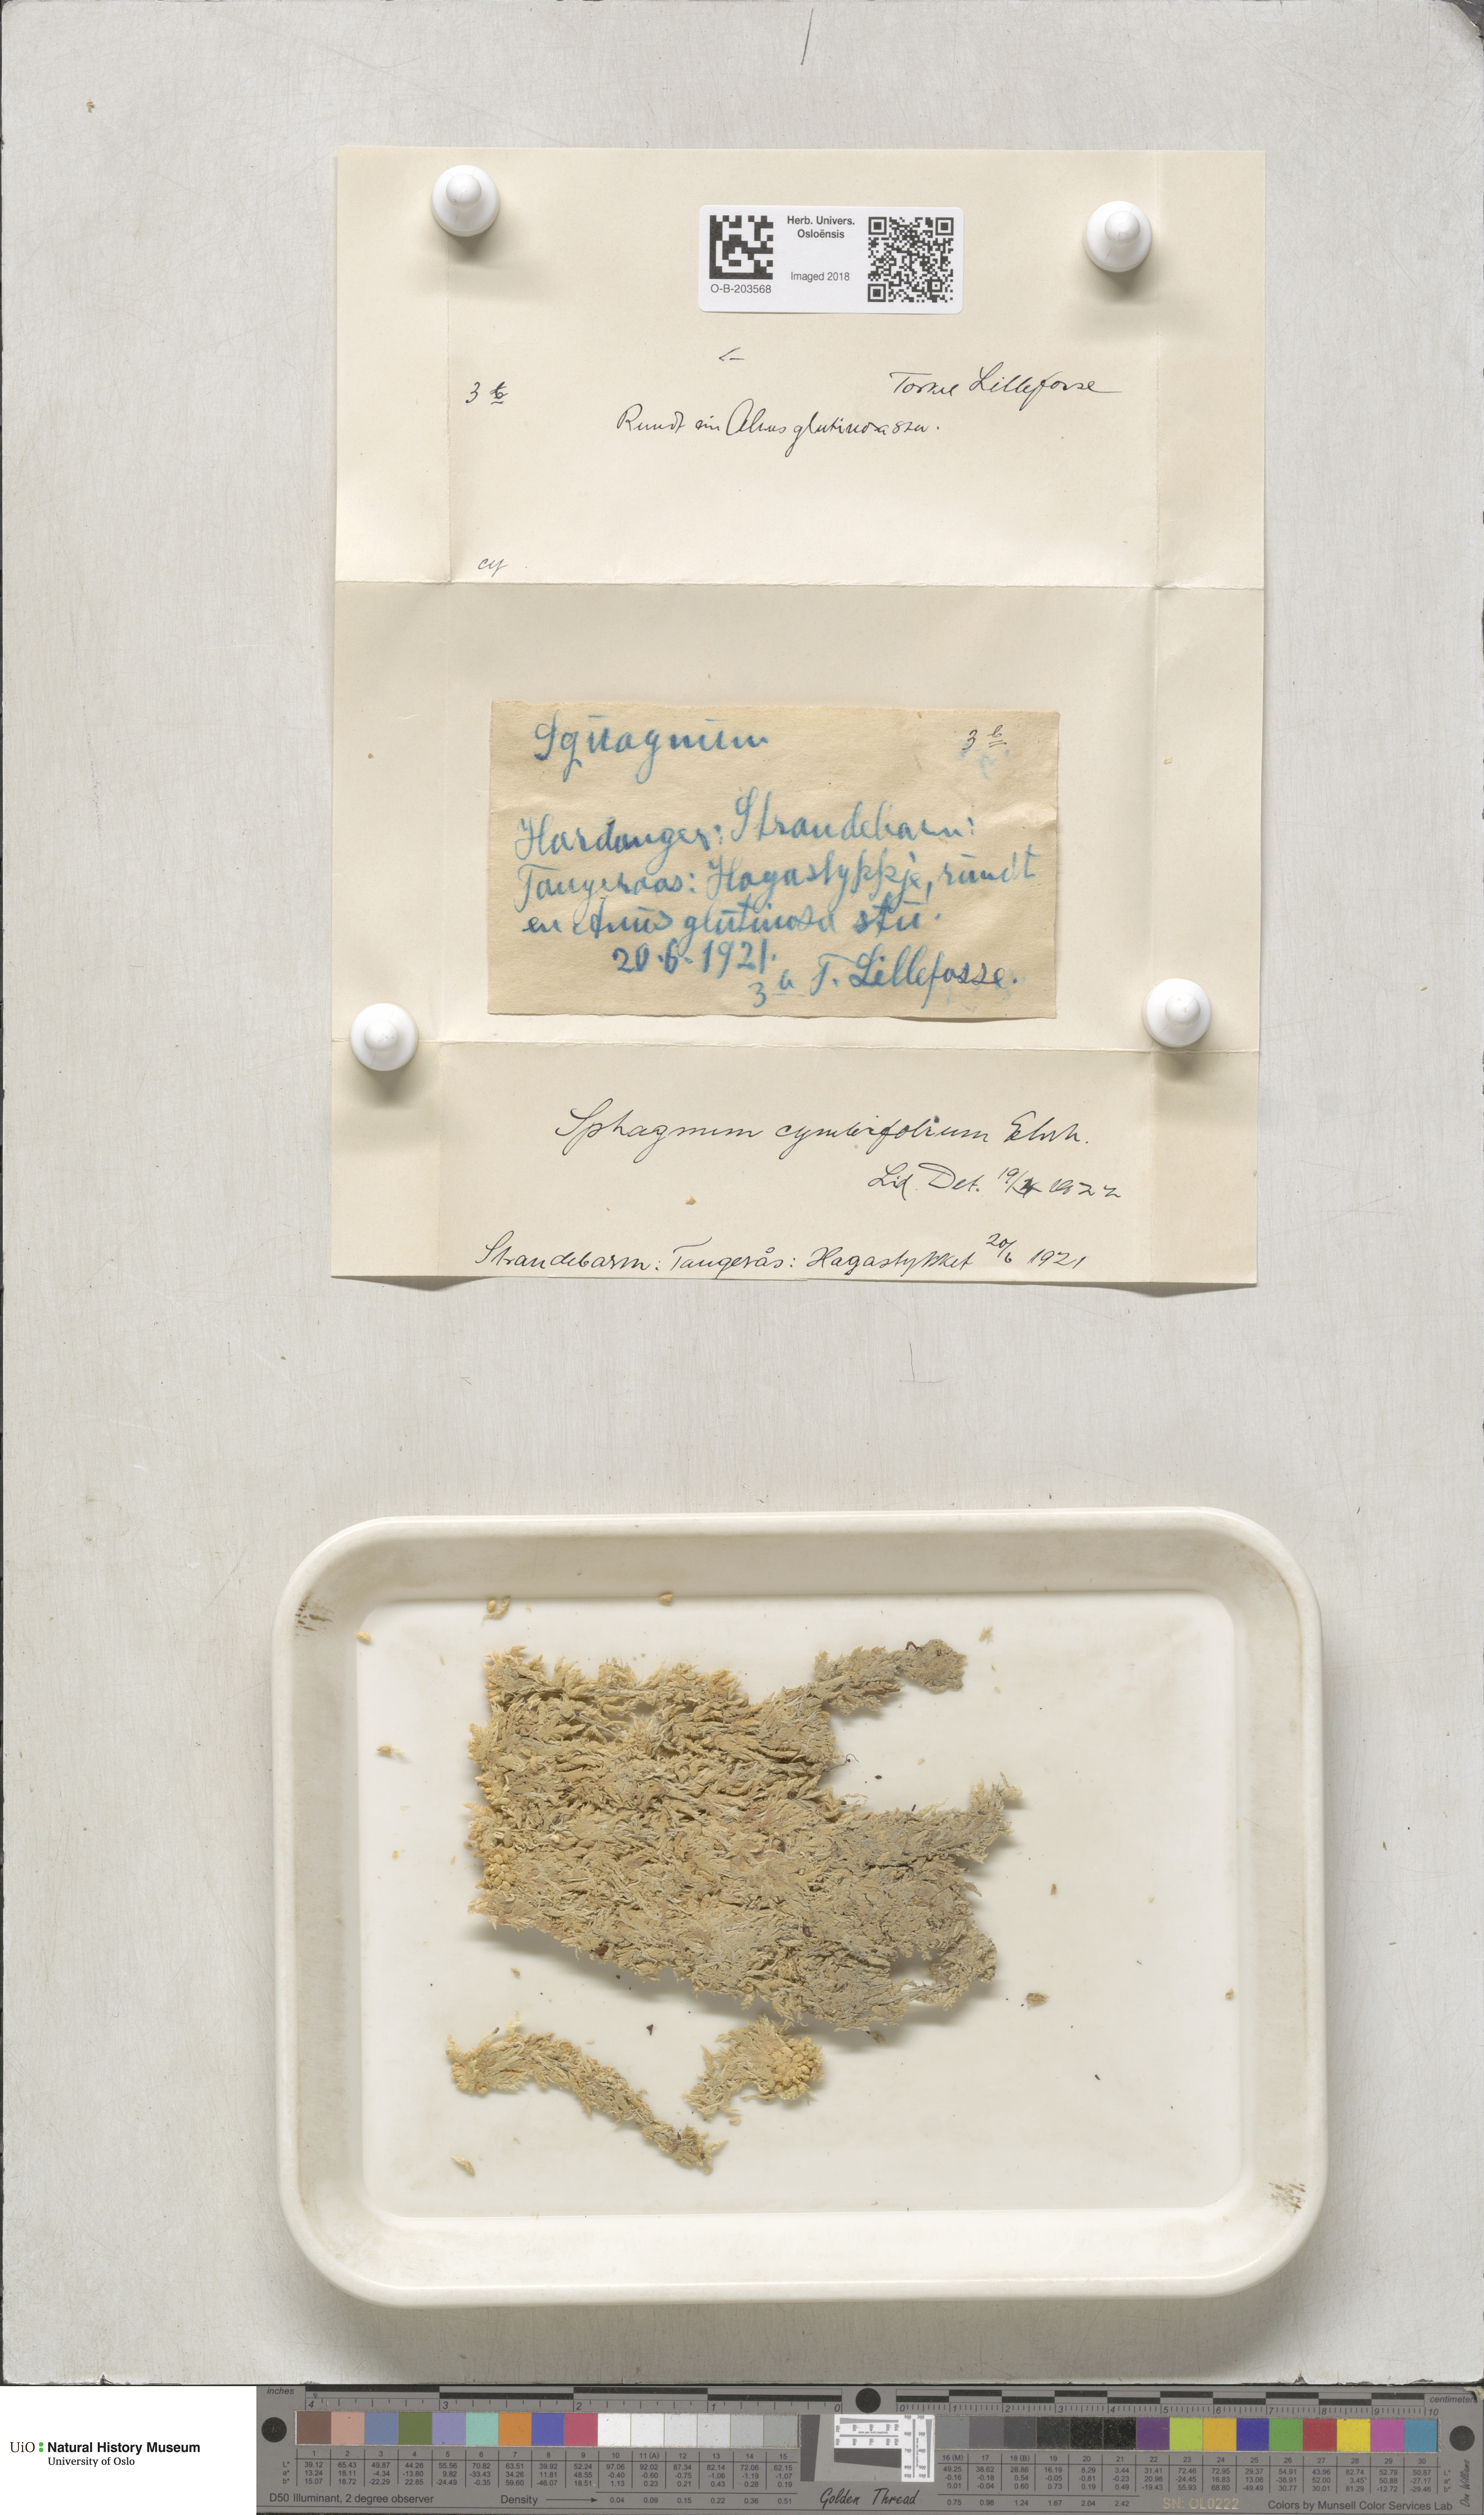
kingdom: Plantae
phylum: Bryophyta
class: Sphagnopsida
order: Sphagnales
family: Sphagnaceae
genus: Sphagnum
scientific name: Sphagnum palustre
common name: Blunt-leaved bog-moss
